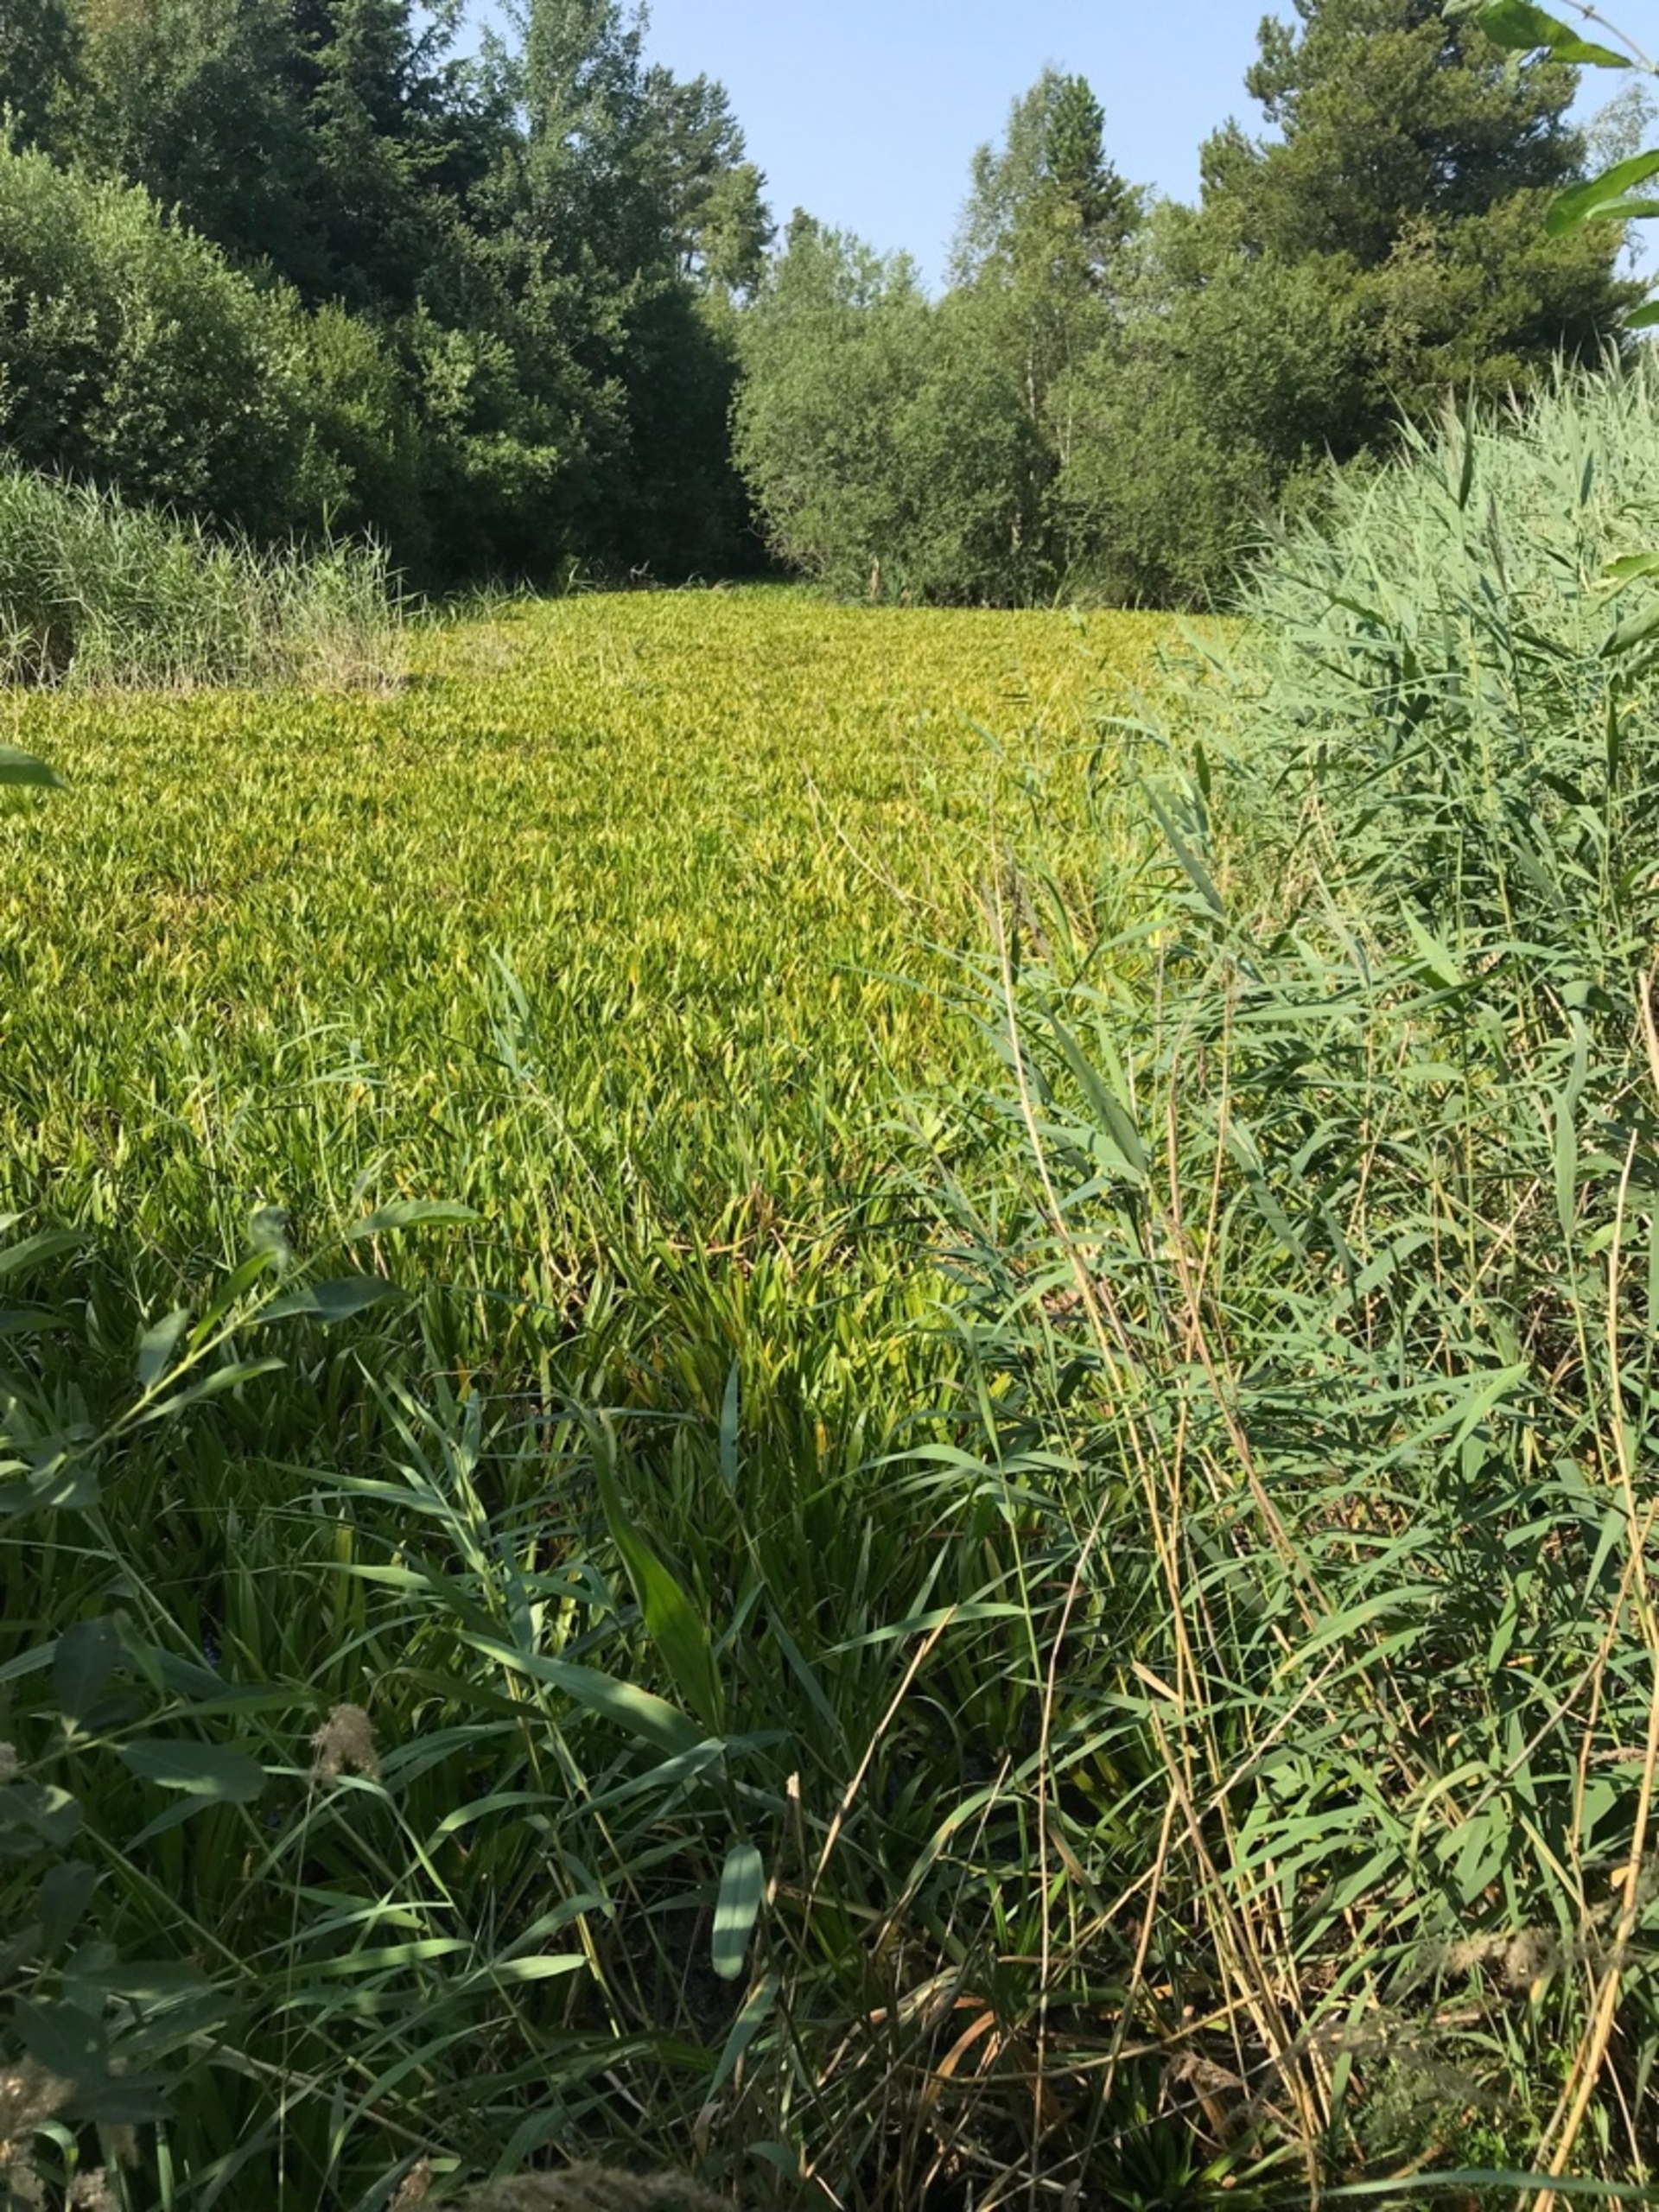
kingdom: Plantae
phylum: Tracheophyta
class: Liliopsida
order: Alismatales
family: Hydrocharitaceae
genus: Stratiotes
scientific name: Stratiotes aloides
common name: Krebseklo
